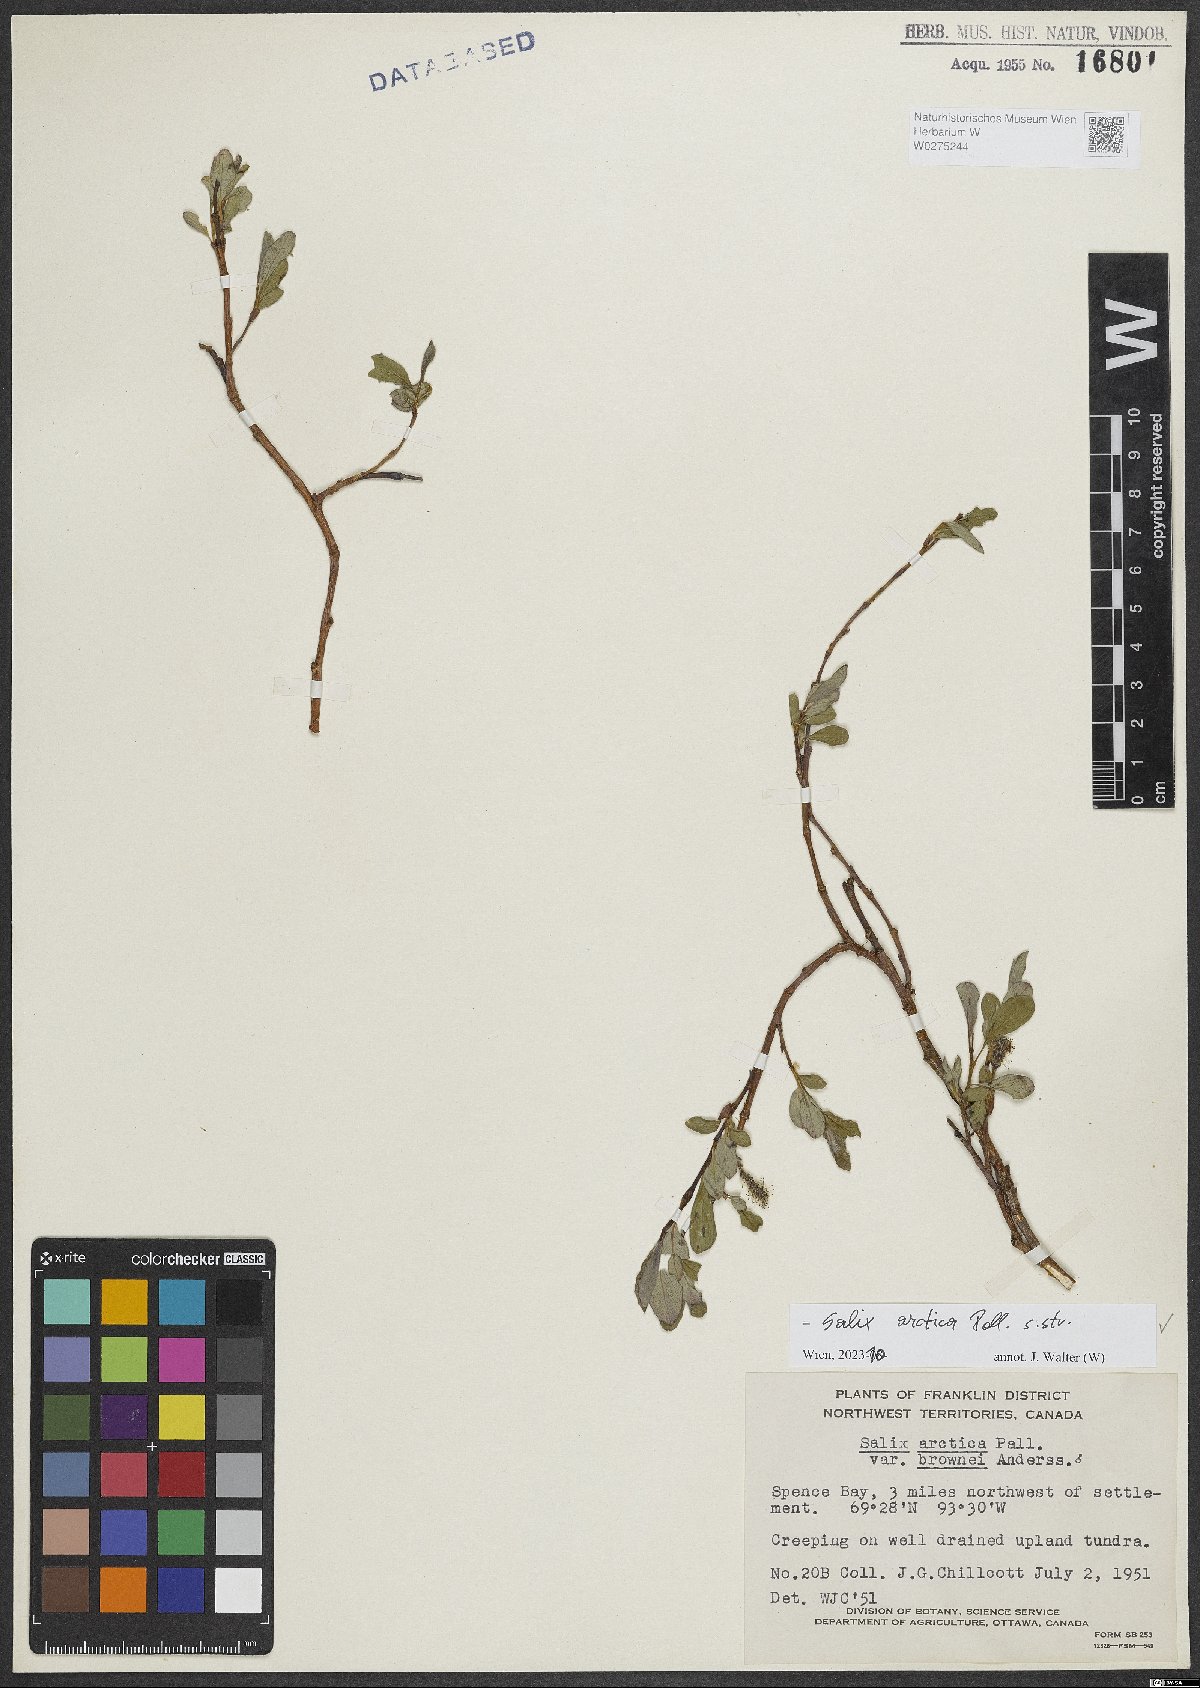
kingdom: Plantae
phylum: Tracheophyta
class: Magnoliopsida
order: Malpighiales
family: Salicaceae
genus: Salix
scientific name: Salix arctica
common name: Arctic willow
